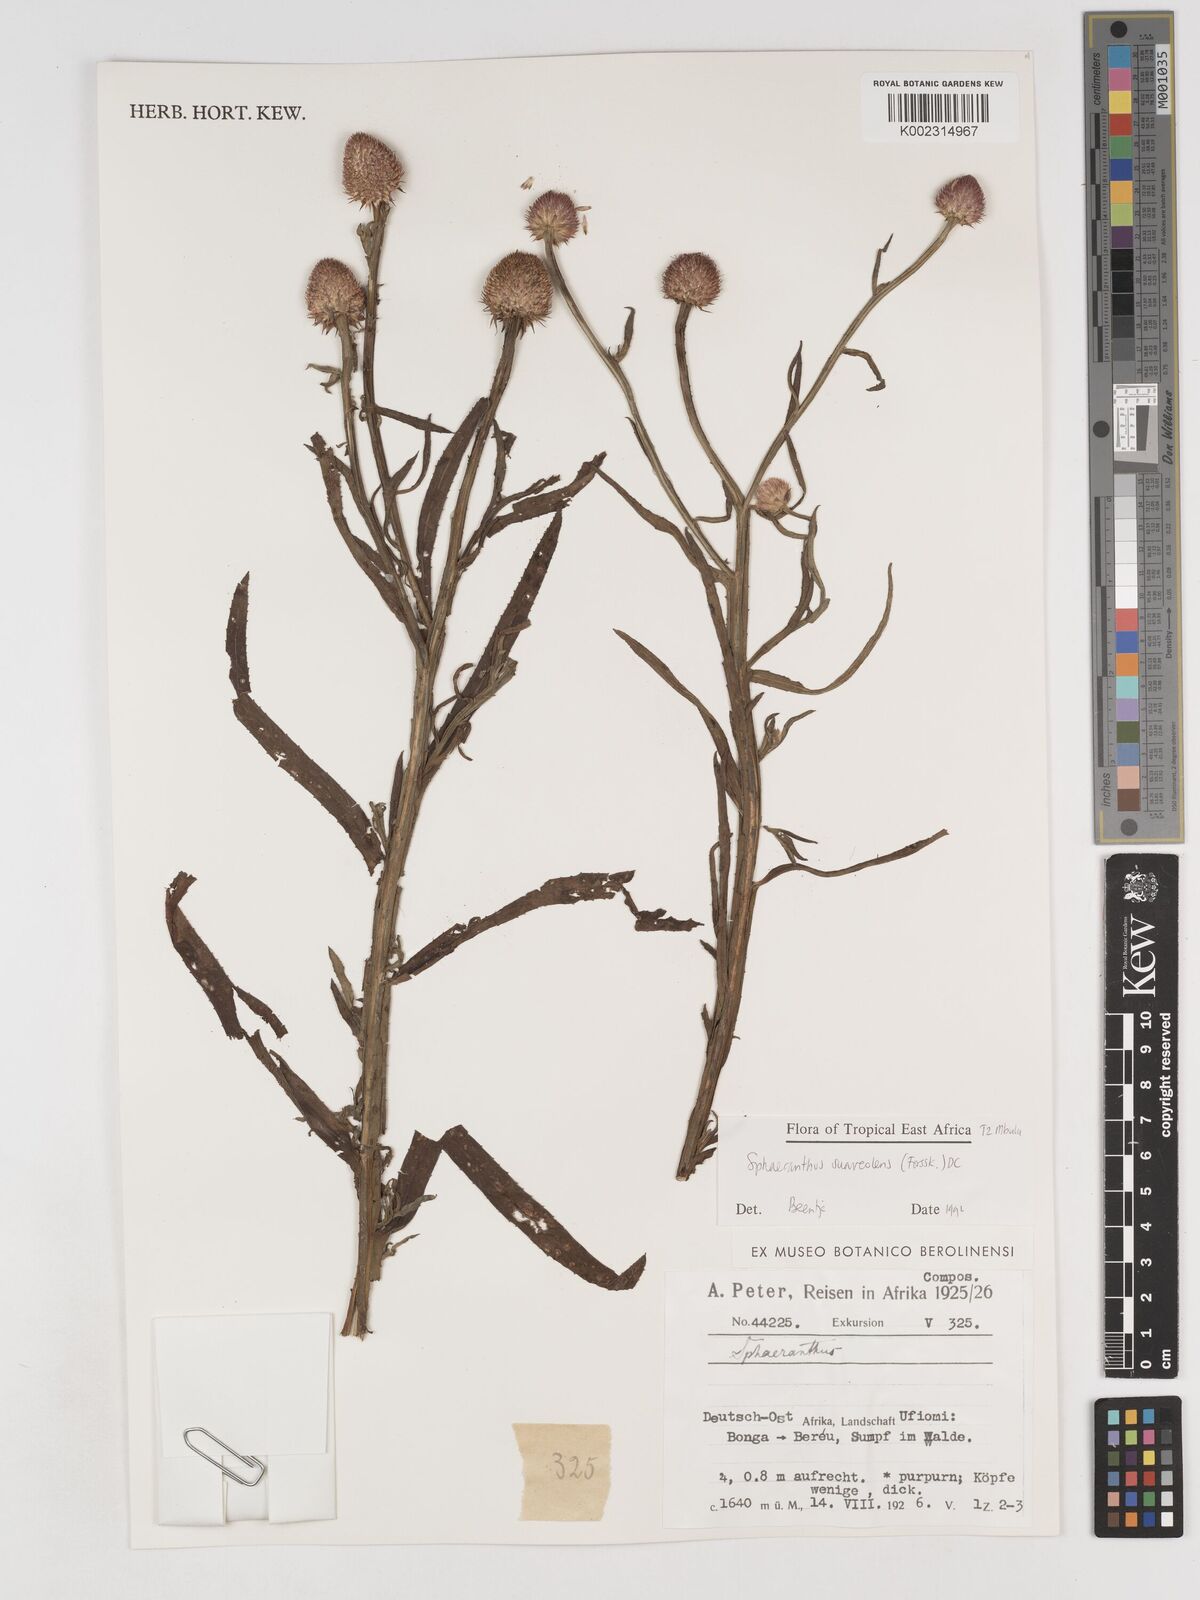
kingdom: Plantae
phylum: Tracheophyta
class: Magnoliopsida
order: Asterales
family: Asteraceae
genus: Sphaeranthus
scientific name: Sphaeranthus suaveolens
